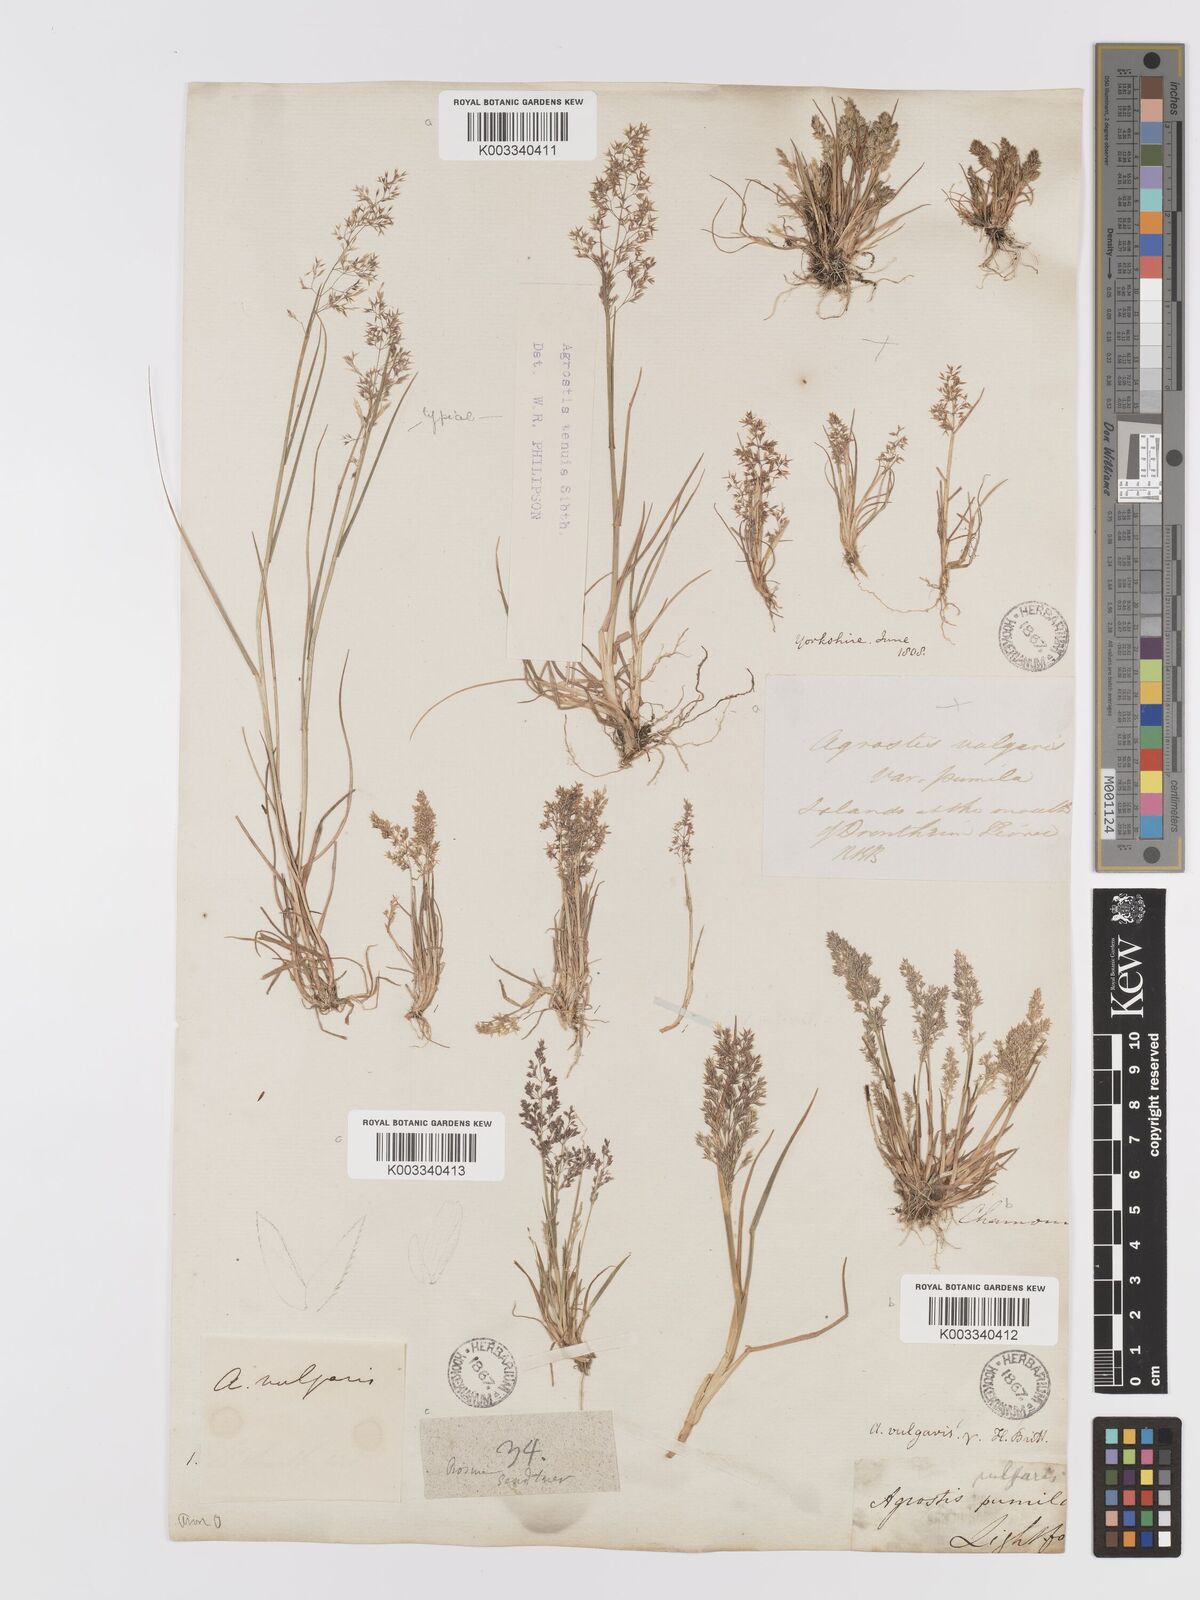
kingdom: Plantae
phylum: Tracheophyta
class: Liliopsida
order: Poales
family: Poaceae
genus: Agrostis
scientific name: Agrostis capillaris
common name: Colonial bentgrass
